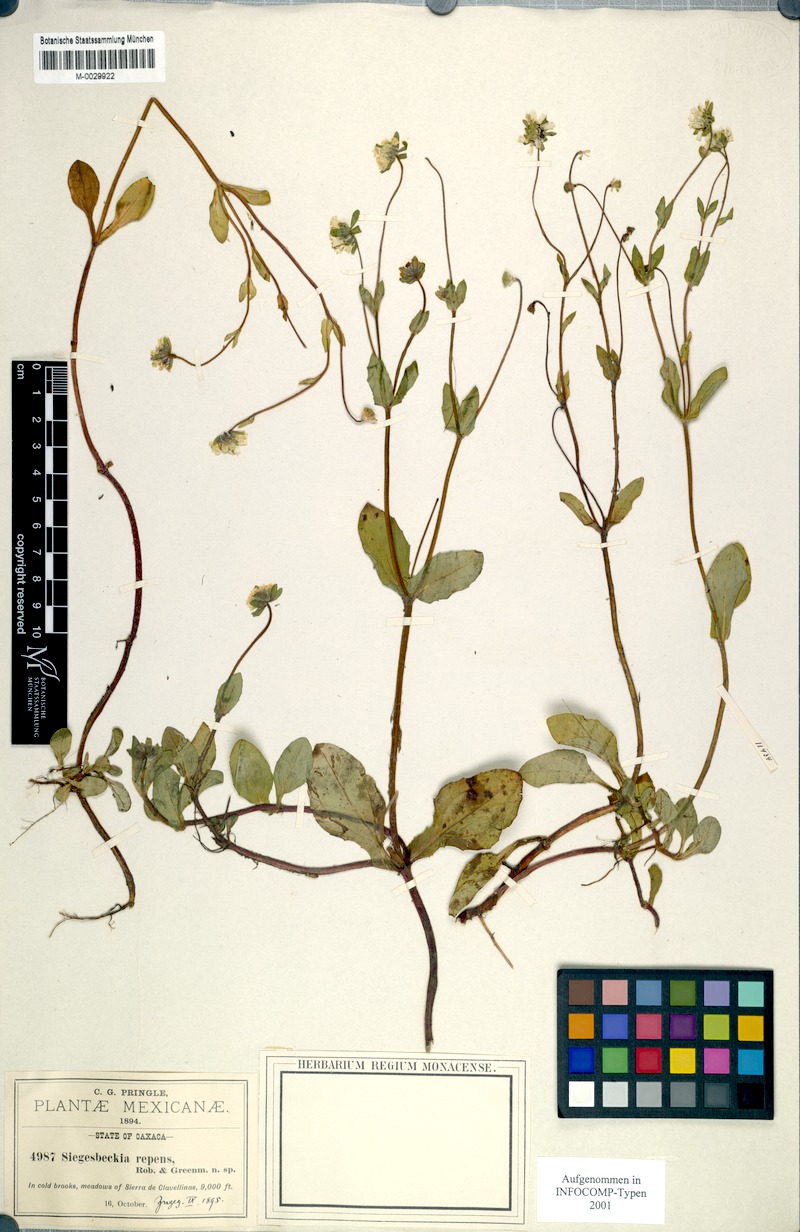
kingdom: Plantae
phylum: Tracheophyta
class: Magnoliopsida
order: Asterales
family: Asteraceae
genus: Sigesbeckia
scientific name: Sigesbeckia repens
